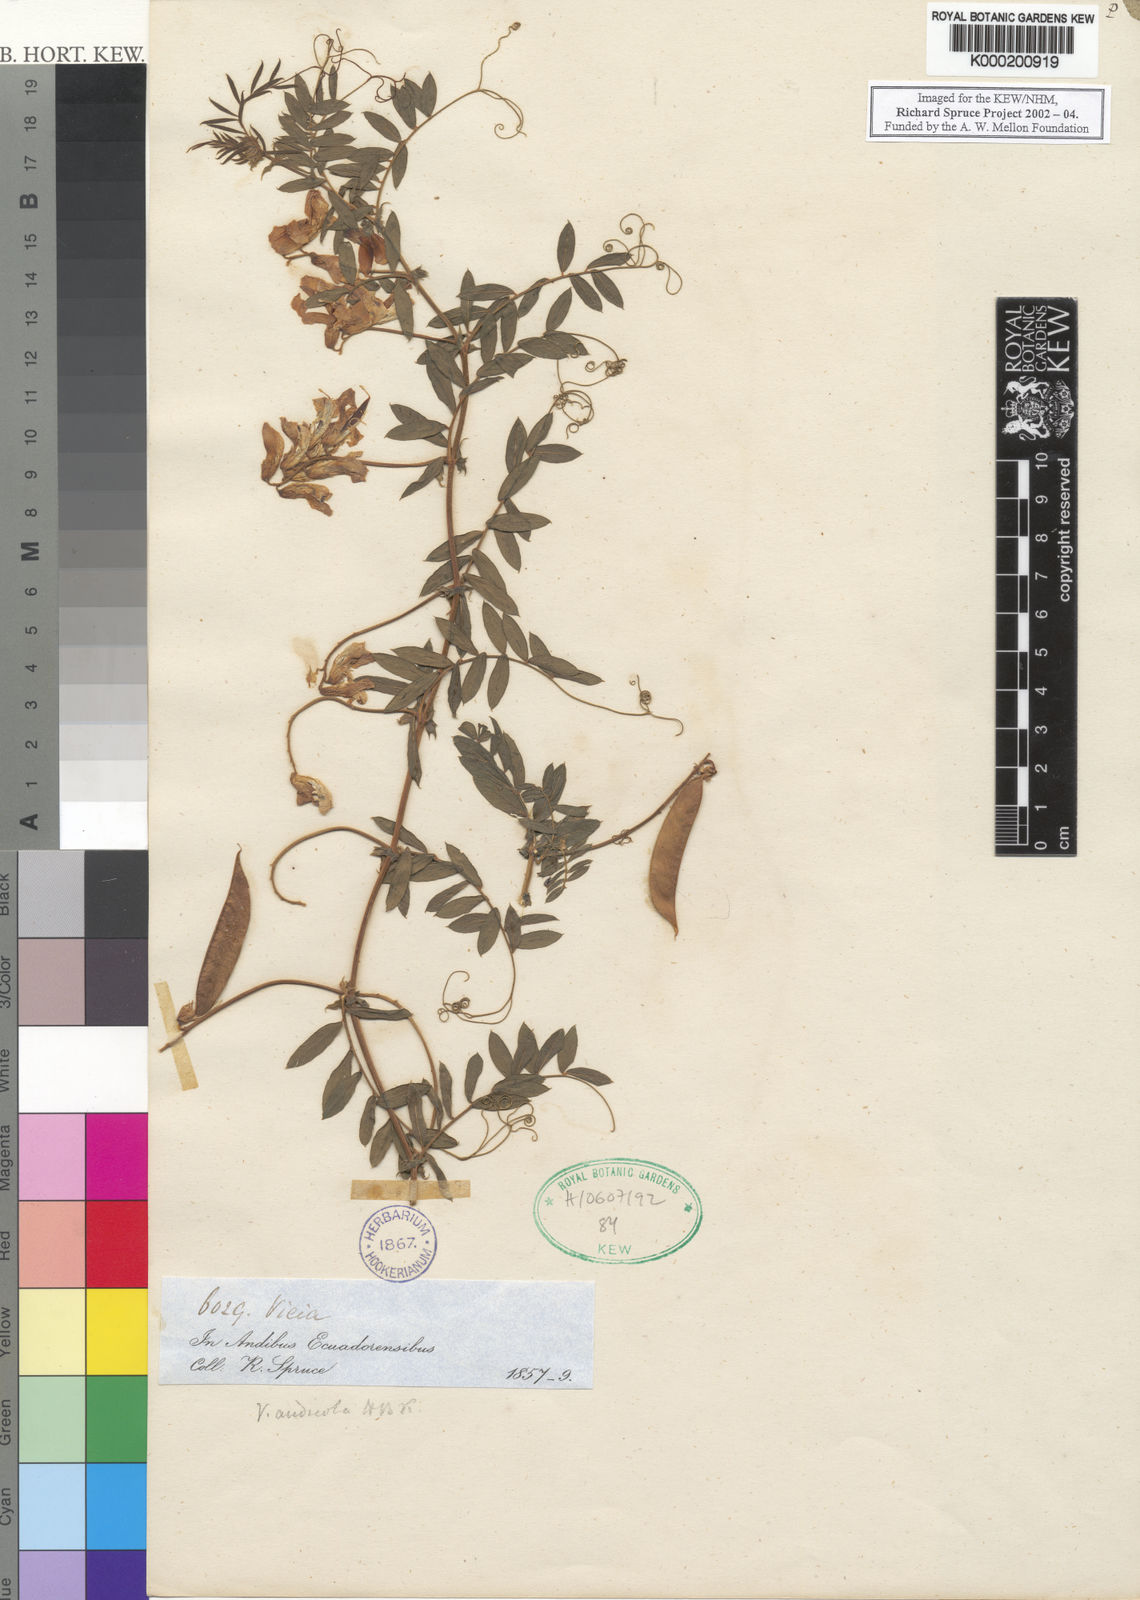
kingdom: Plantae
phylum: Tracheophyta
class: Magnoliopsida
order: Fabales
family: Fabaceae
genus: Vicia
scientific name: Vicia andicola
